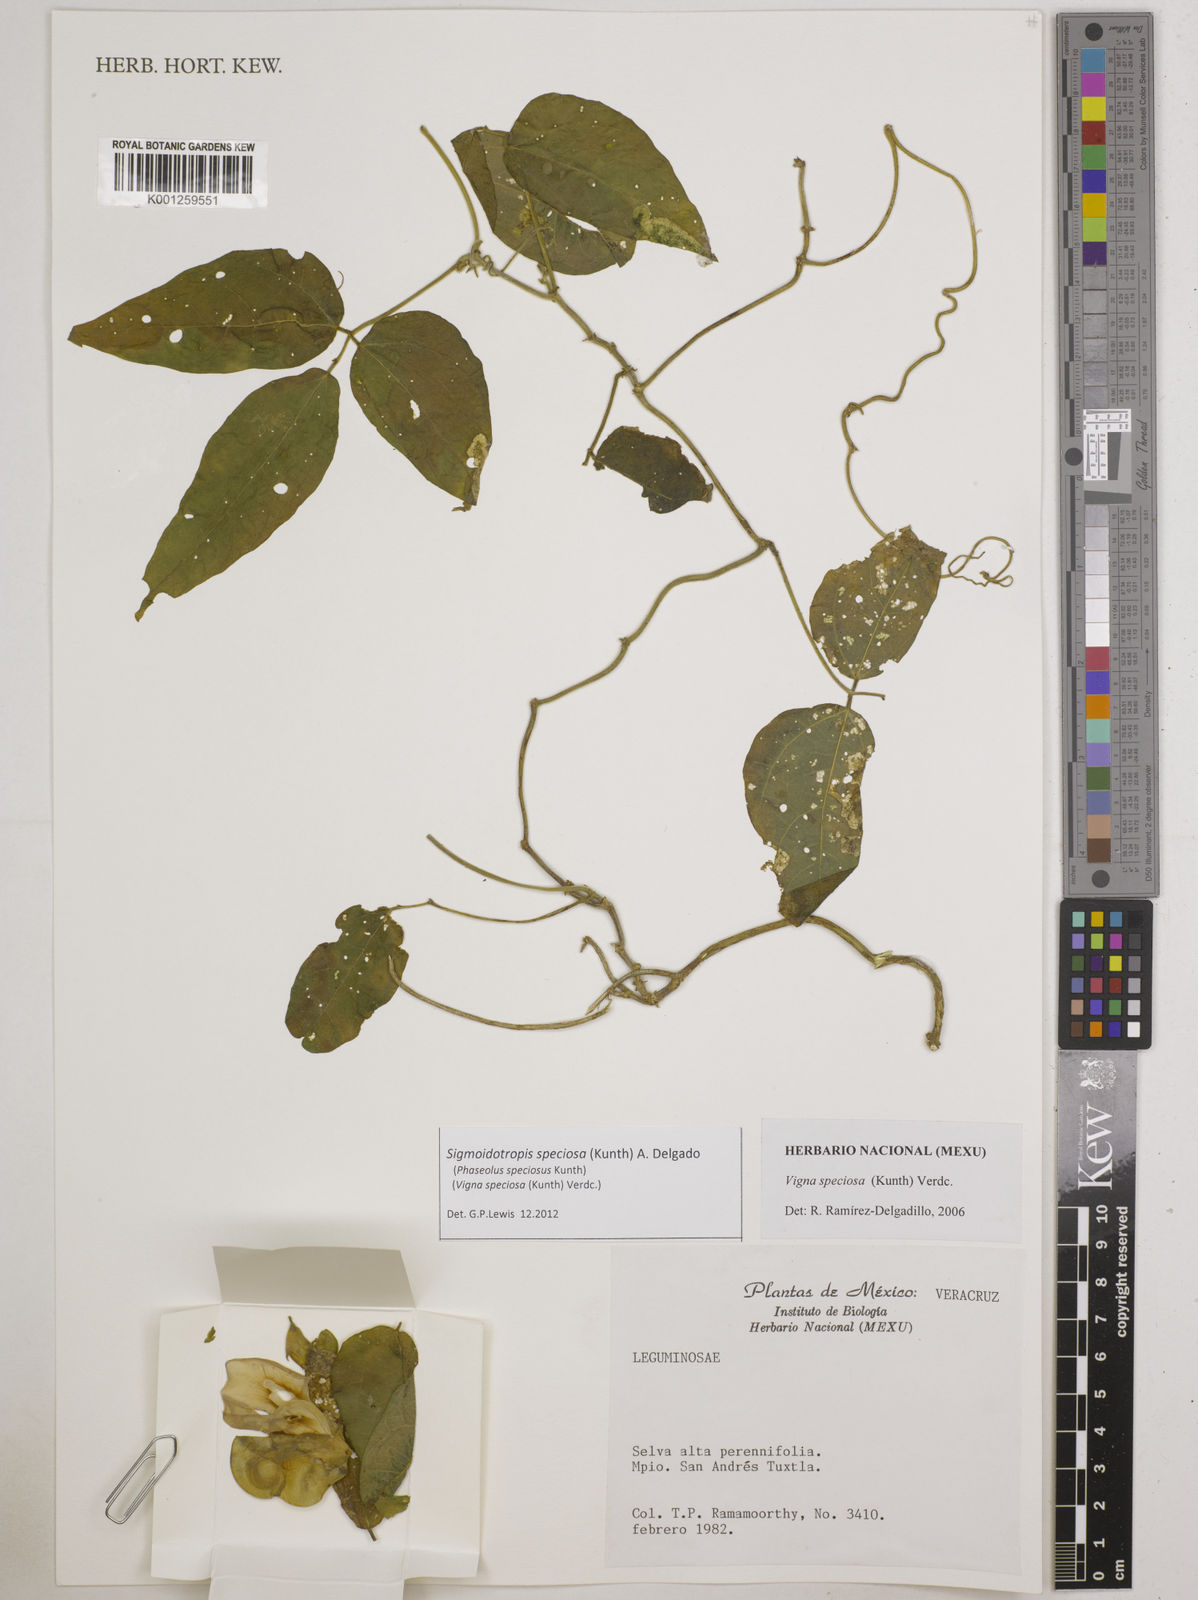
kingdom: Plantae
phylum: Tracheophyta
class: Magnoliopsida
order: Fabales
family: Fabaceae
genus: Sigmoidotropis
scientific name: Sigmoidotropis speciosa
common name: Snail flower
